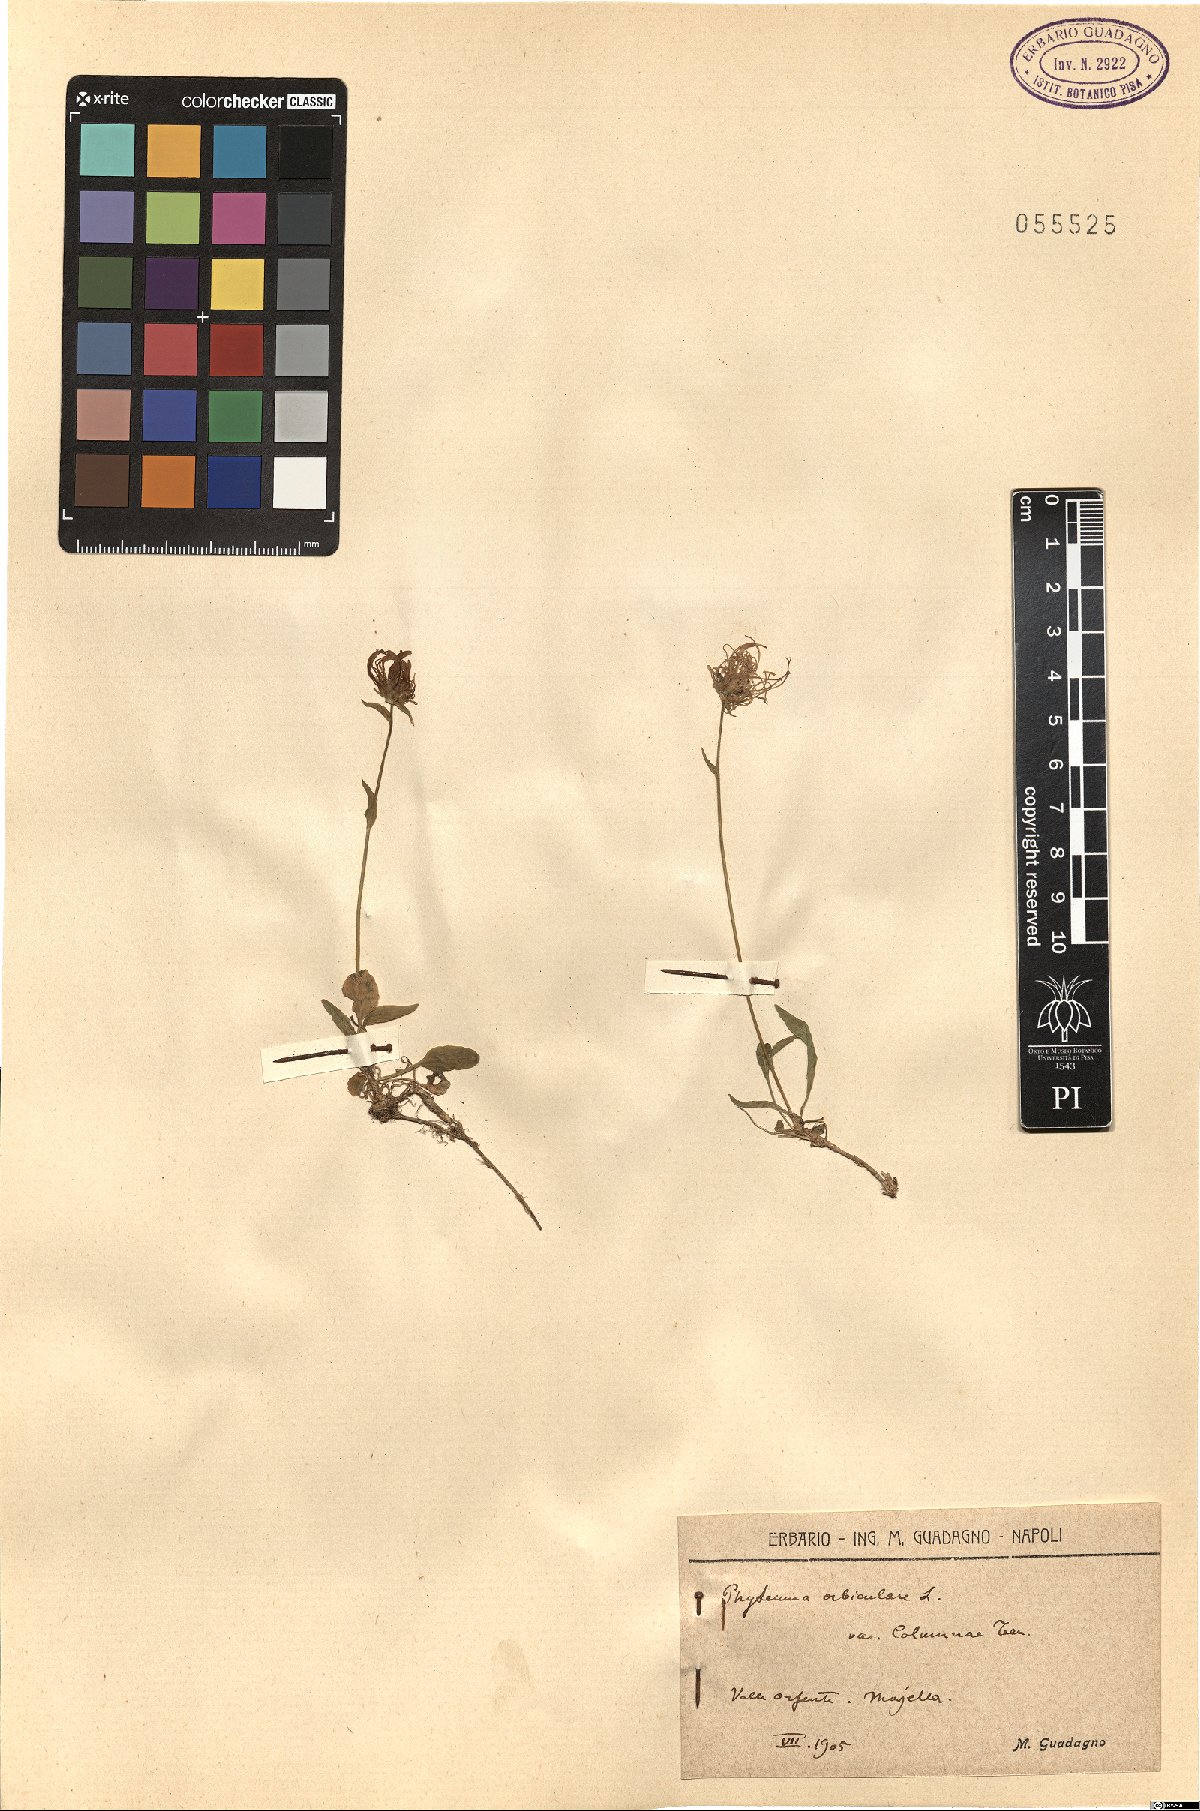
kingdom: Plantae
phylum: Tracheophyta
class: Magnoliopsida
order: Asterales
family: Campanulaceae
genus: Phyteuma
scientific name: Phyteuma orbiculare
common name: Round-headed rampion
